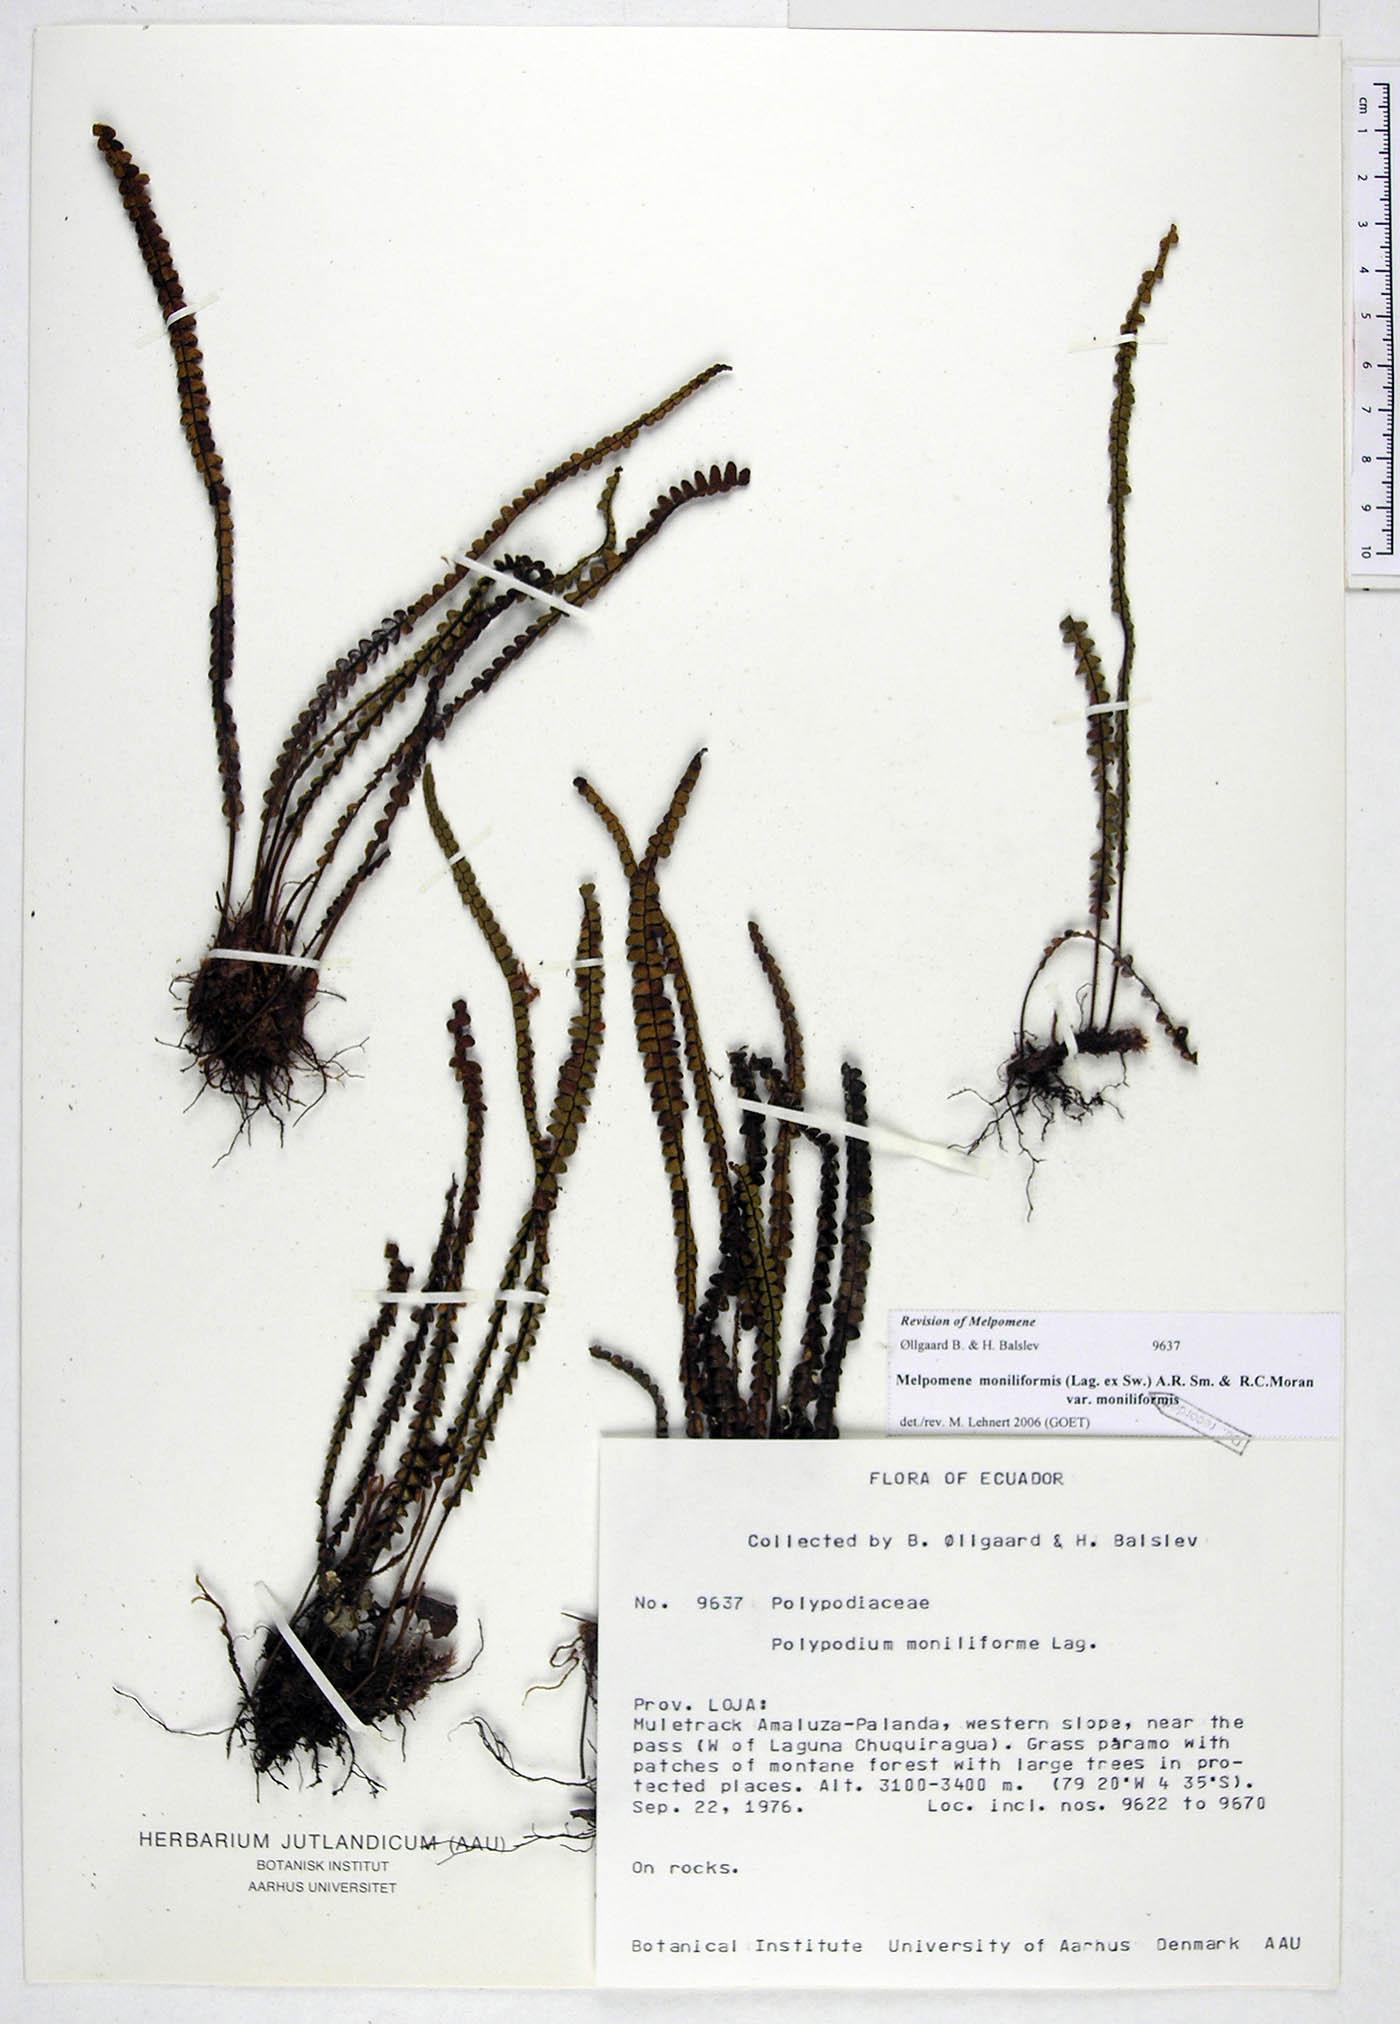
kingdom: Plantae
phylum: Tracheophyta
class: Polypodiopsida
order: Polypodiales
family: Polypodiaceae
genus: Melpomene
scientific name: Melpomene moniliformis
